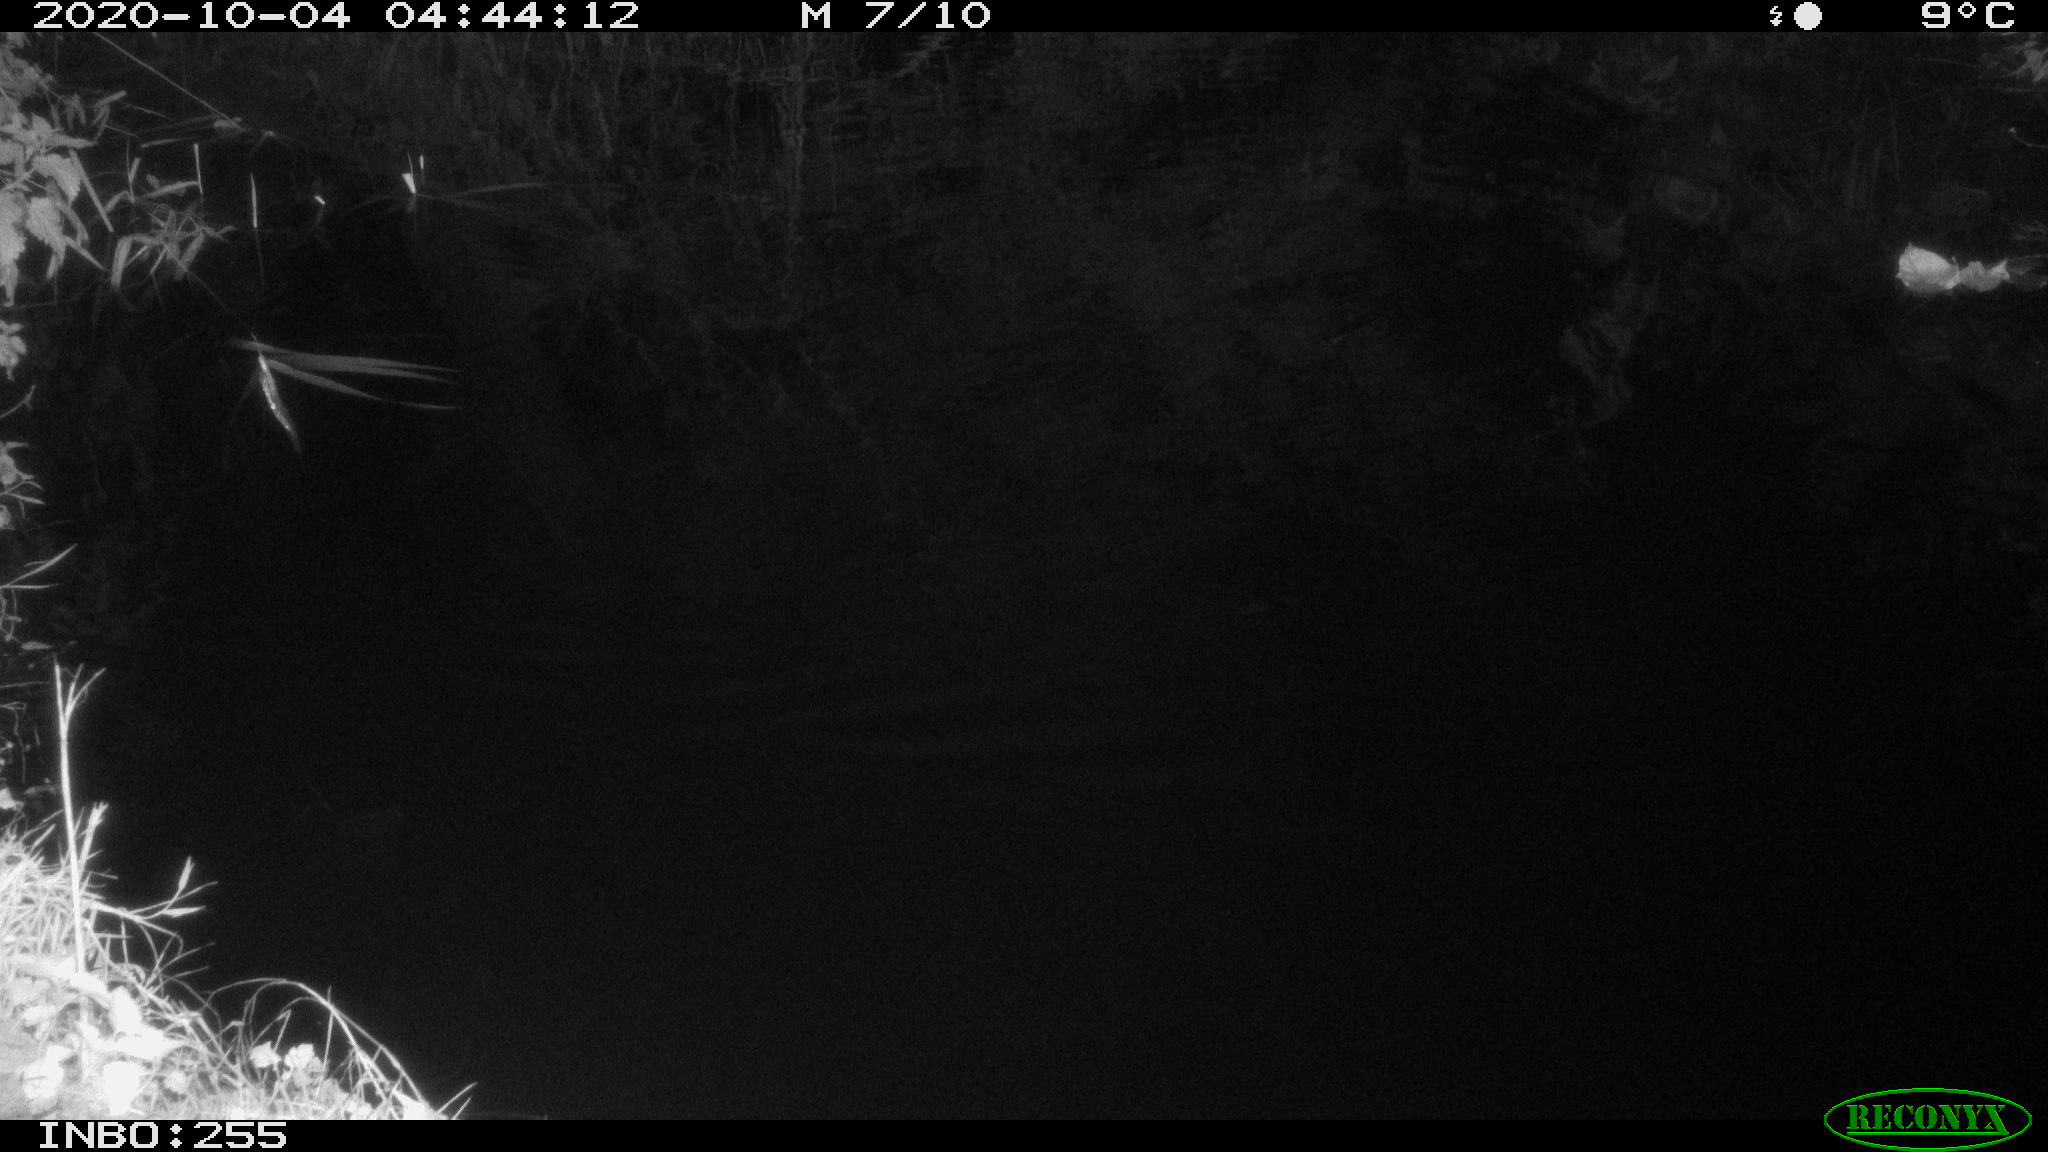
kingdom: Animalia
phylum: Chordata
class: Mammalia
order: Rodentia
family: Muridae
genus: Rattus
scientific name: Rattus norvegicus
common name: Brown rat
